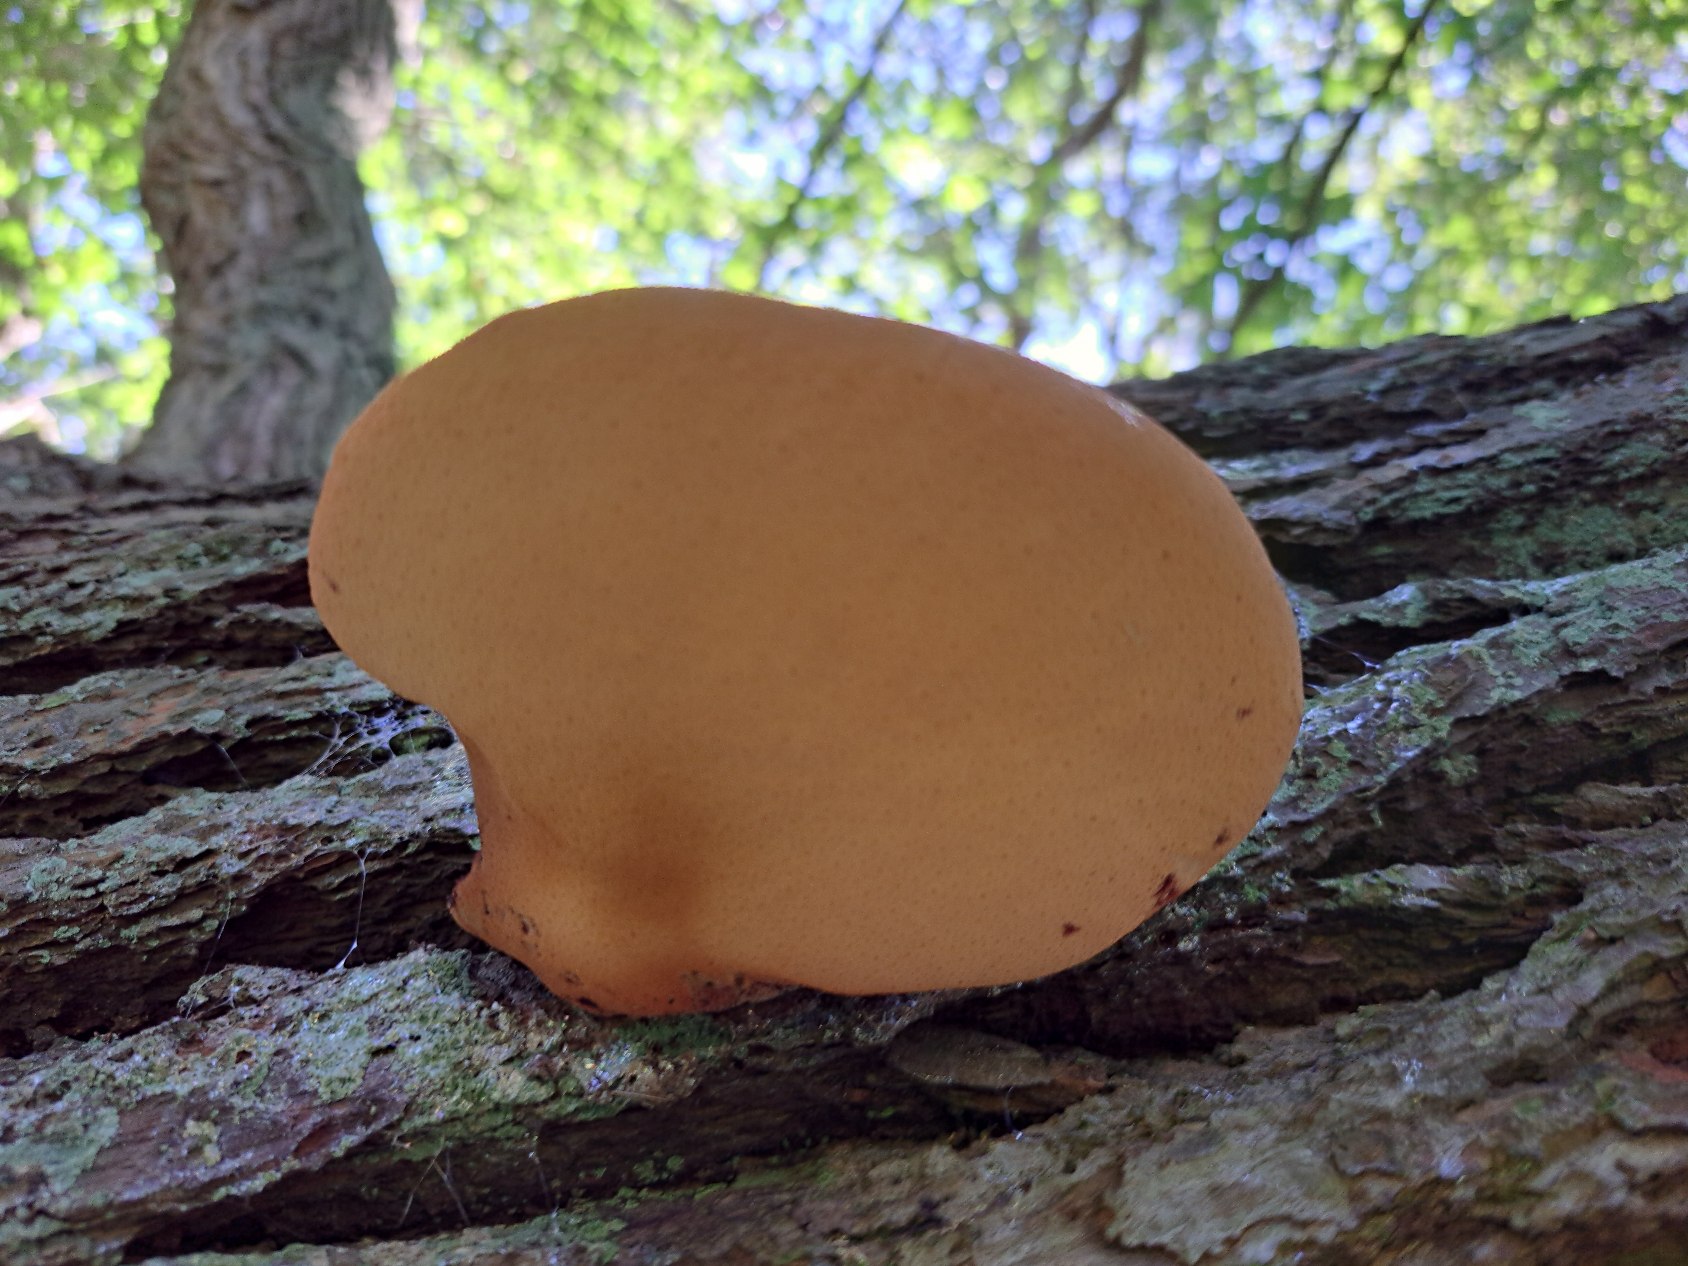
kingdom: Fungi
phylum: Basidiomycota
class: Agaricomycetes
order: Agaricales
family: Fistulinaceae
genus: Fistulina
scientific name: Fistulina hepatica
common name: Oksetunge
